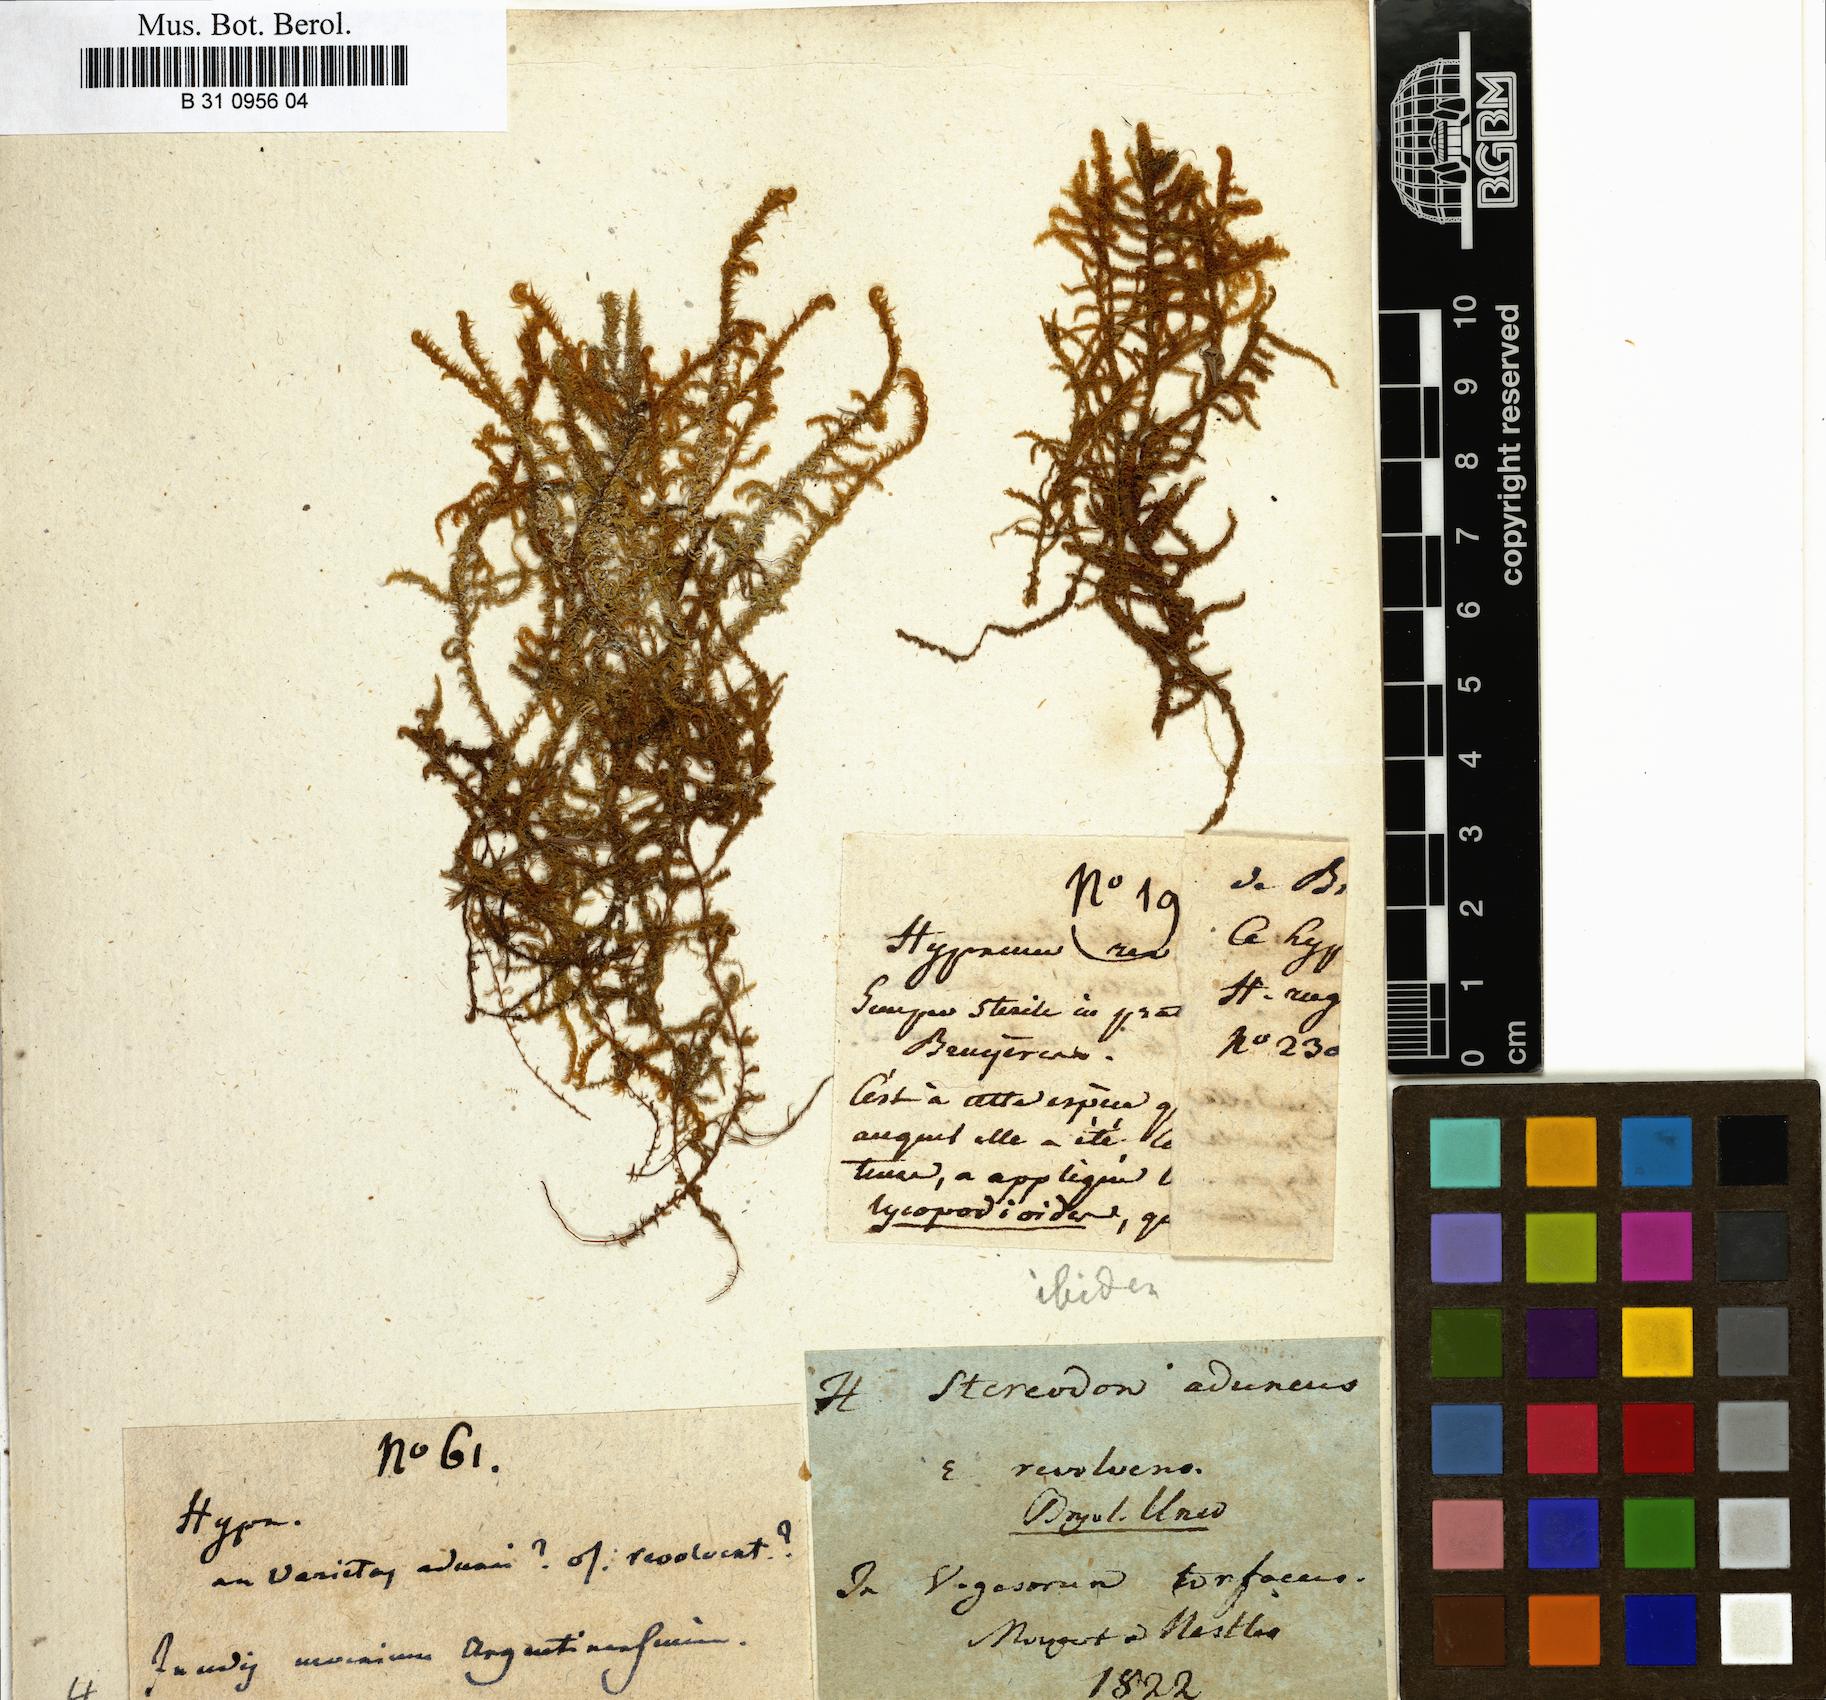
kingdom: Plantae
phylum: Bryophyta
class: Bryopsida
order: Hypnales
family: Amblystegiaceae
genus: Drepanocladus
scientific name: Drepanocladus aduncus
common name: Knieff's hook moss
